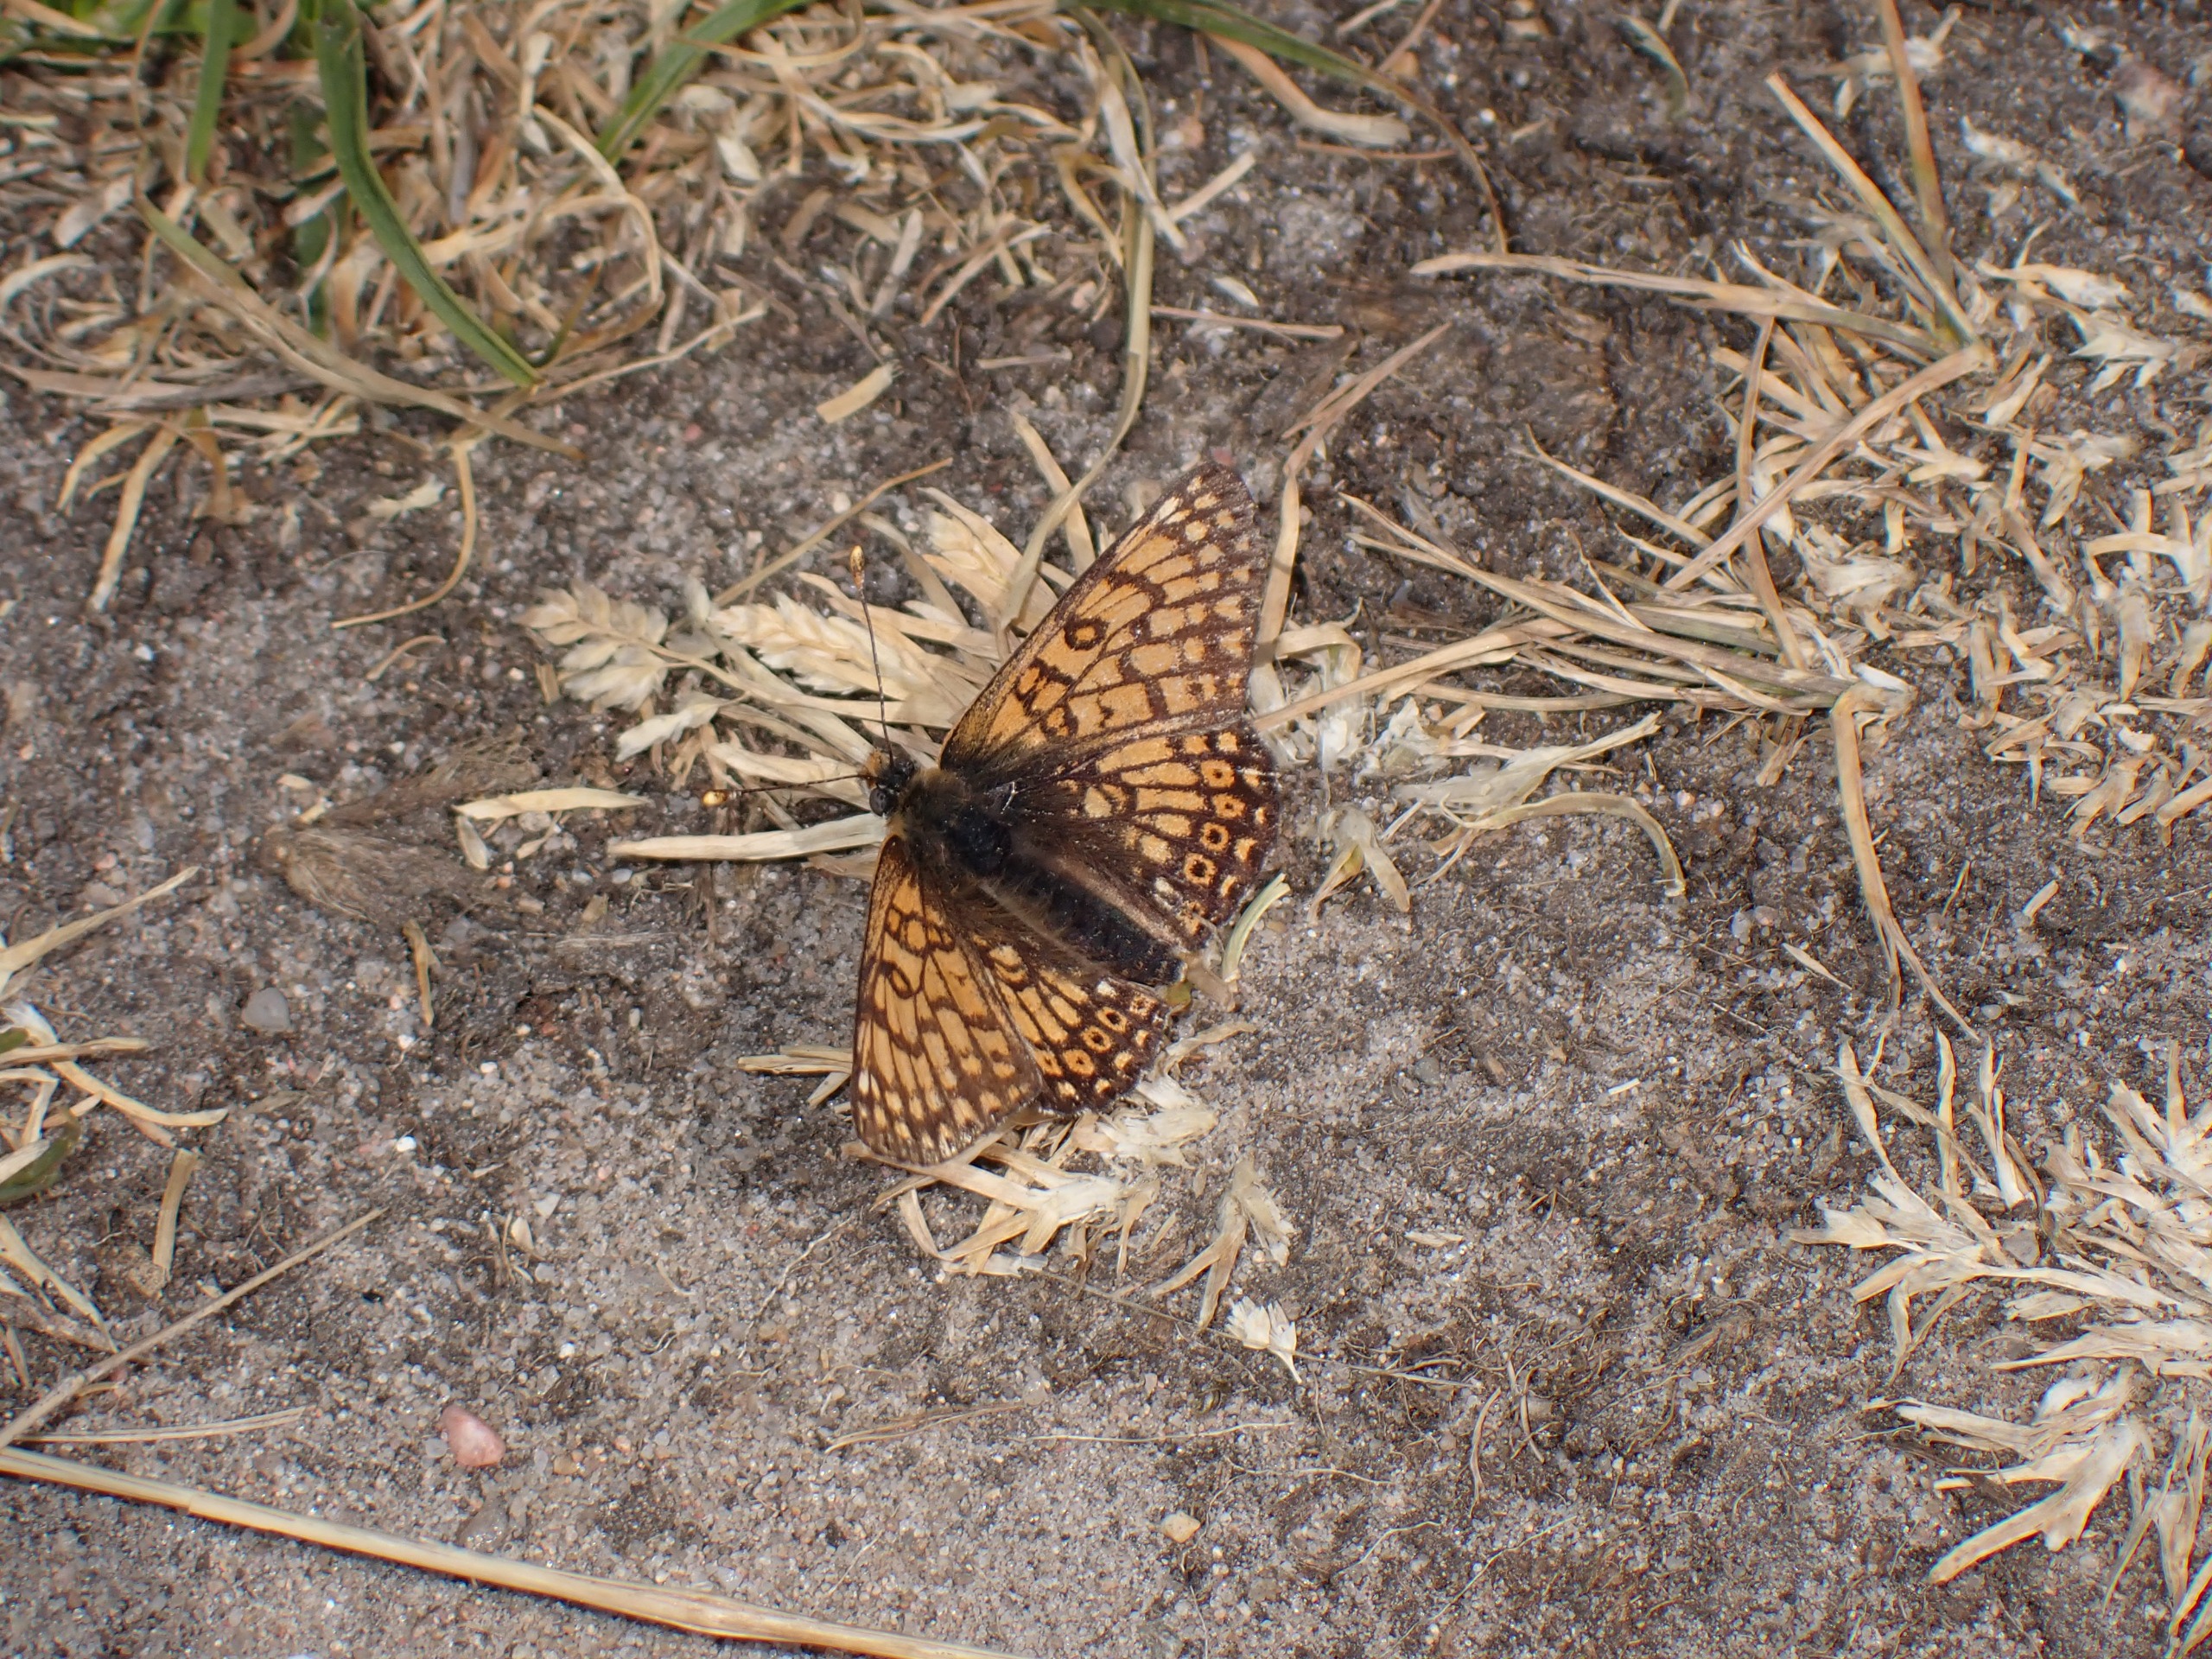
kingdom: Animalia
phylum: Arthropoda
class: Insecta
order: Lepidoptera
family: Nymphalidae
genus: Melitaea
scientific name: Melitaea cinxia
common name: Okkergul pletvinge
